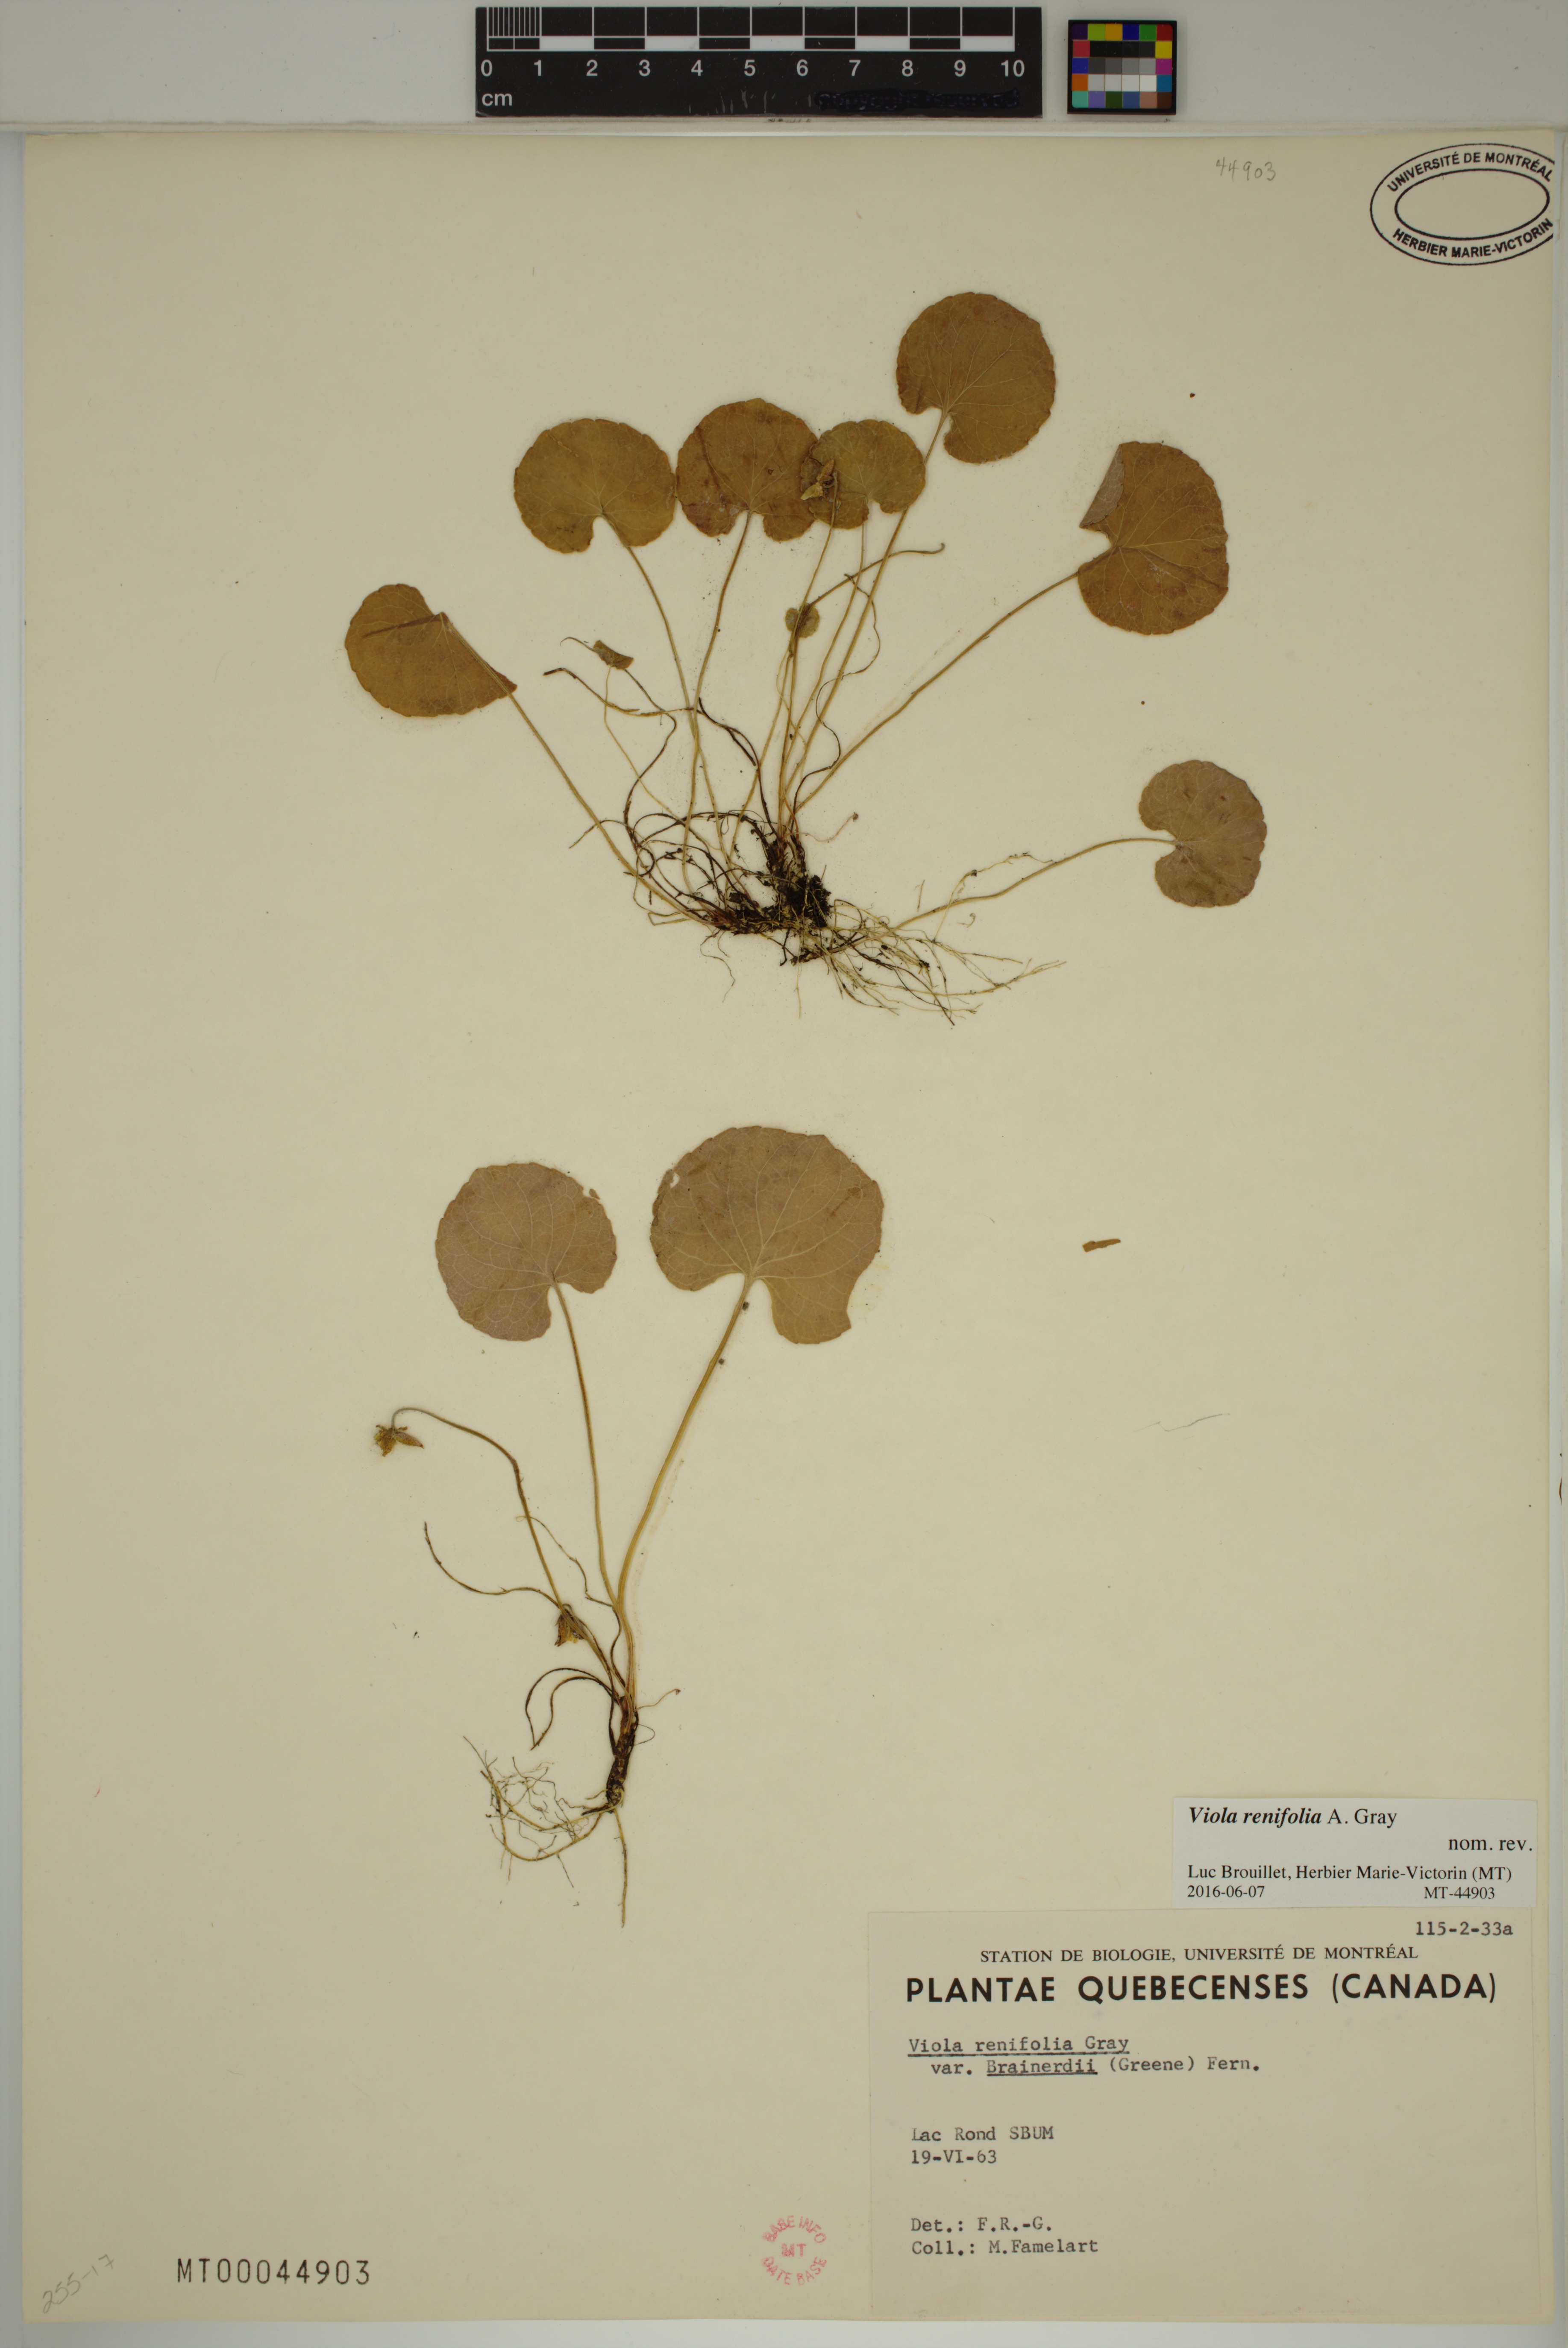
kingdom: Plantae
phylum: Tracheophyta
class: Magnoliopsida
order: Malpighiales
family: Violaceae
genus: Viola
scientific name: Viola renifolia
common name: Kidney-leaf violet
